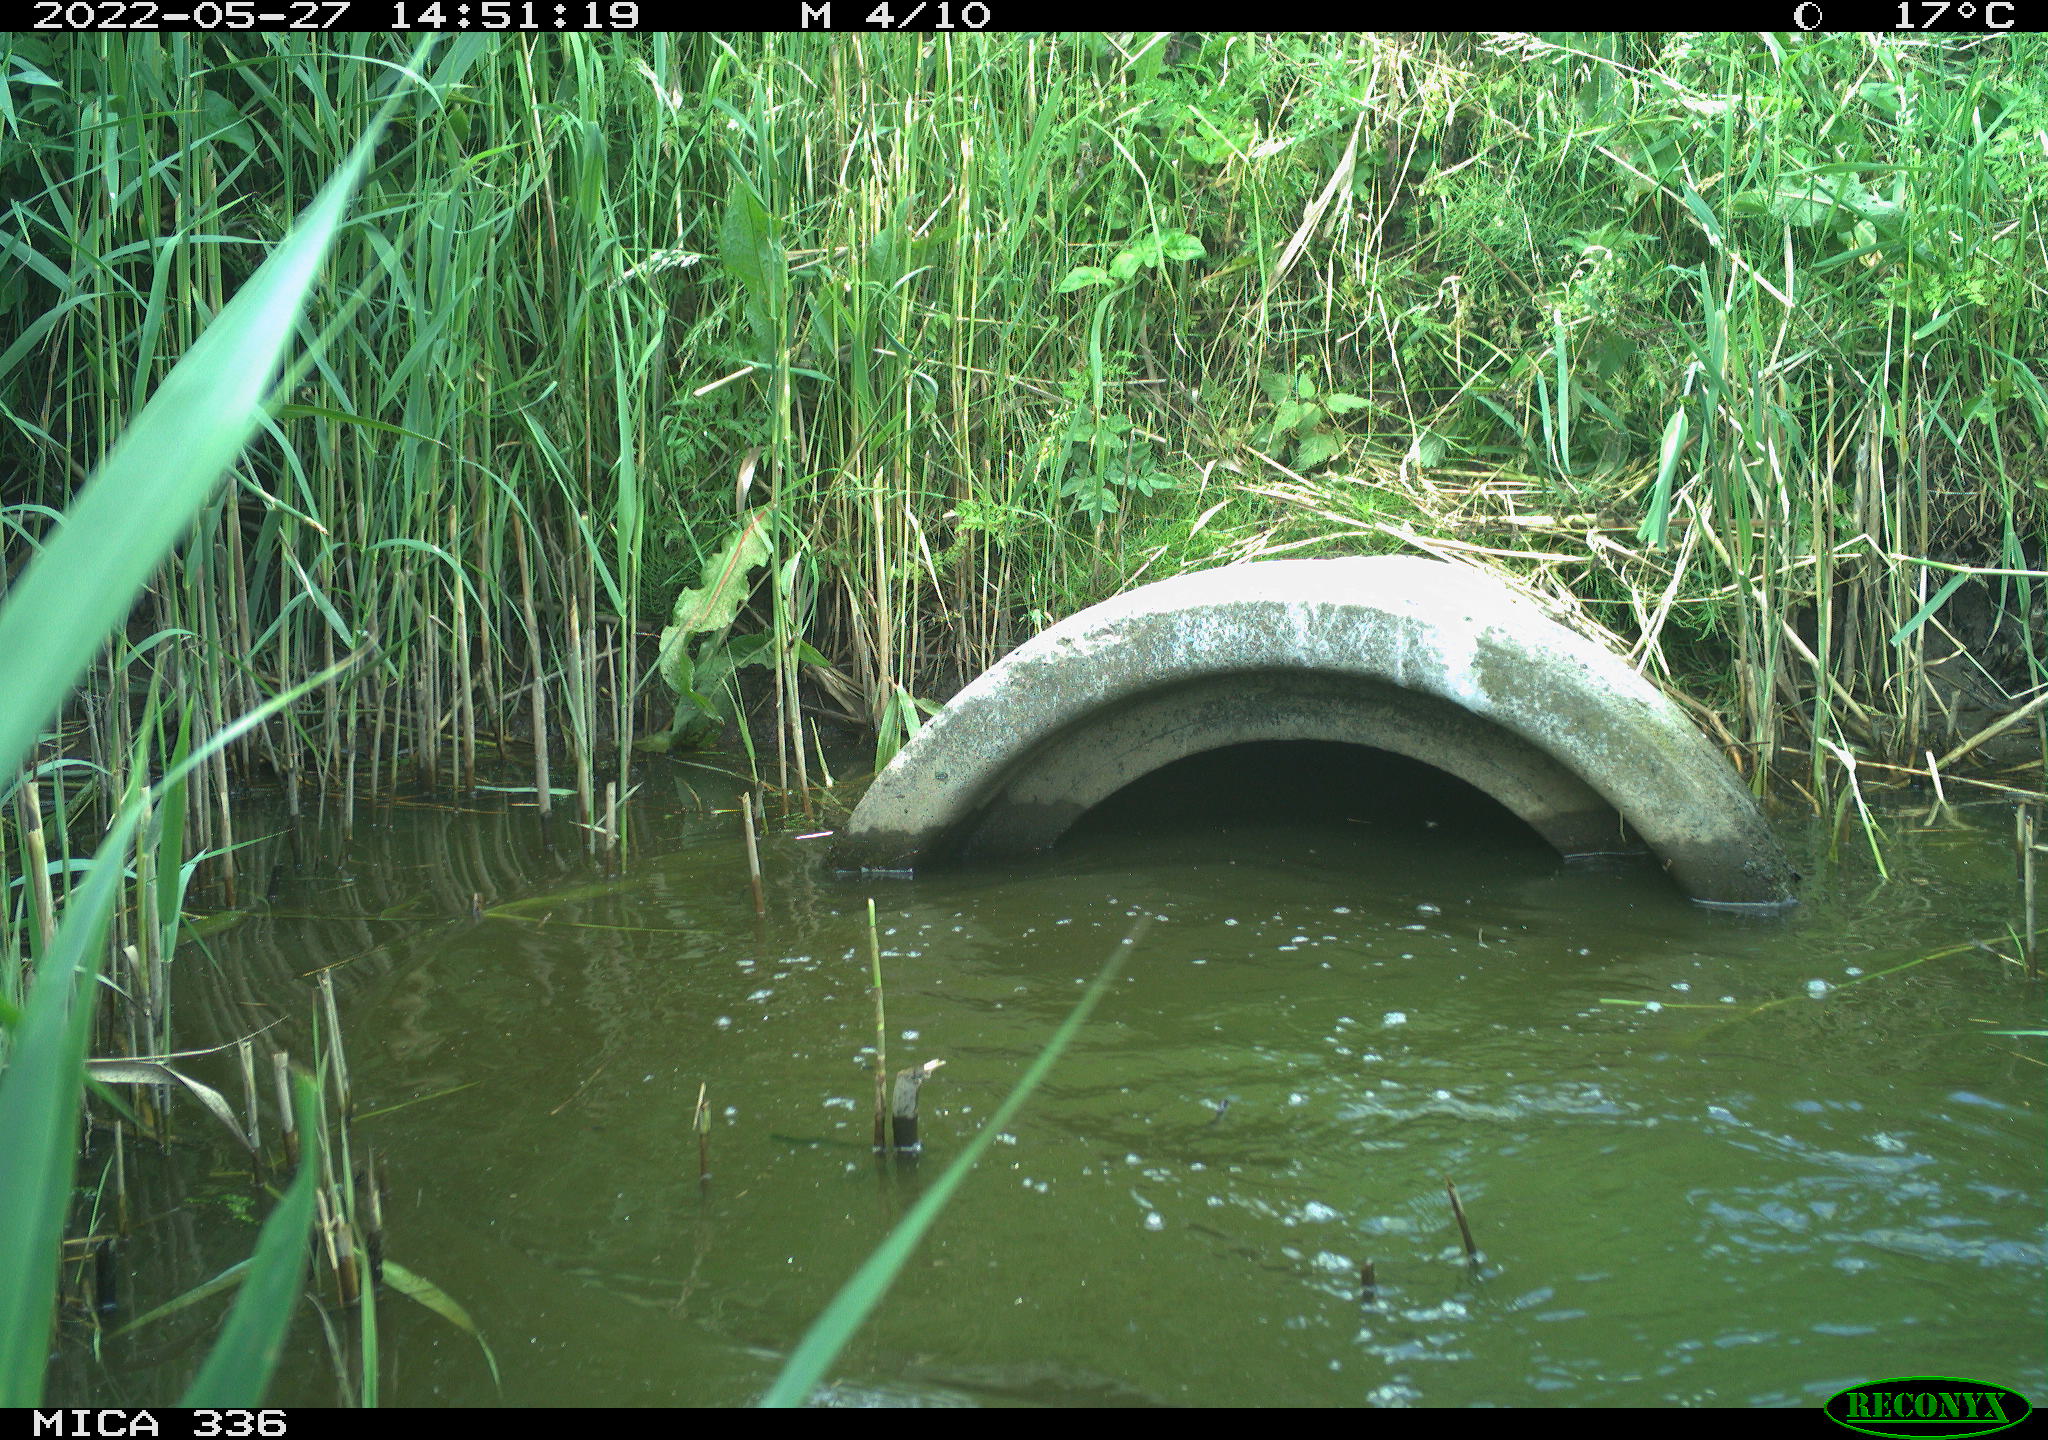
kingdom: Animalia
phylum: Chordata
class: Aves
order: Suliformes
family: Phalacrocoracidae
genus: Phalacrocorax
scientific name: Phalacrocorax carbo
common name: Great cormorant
